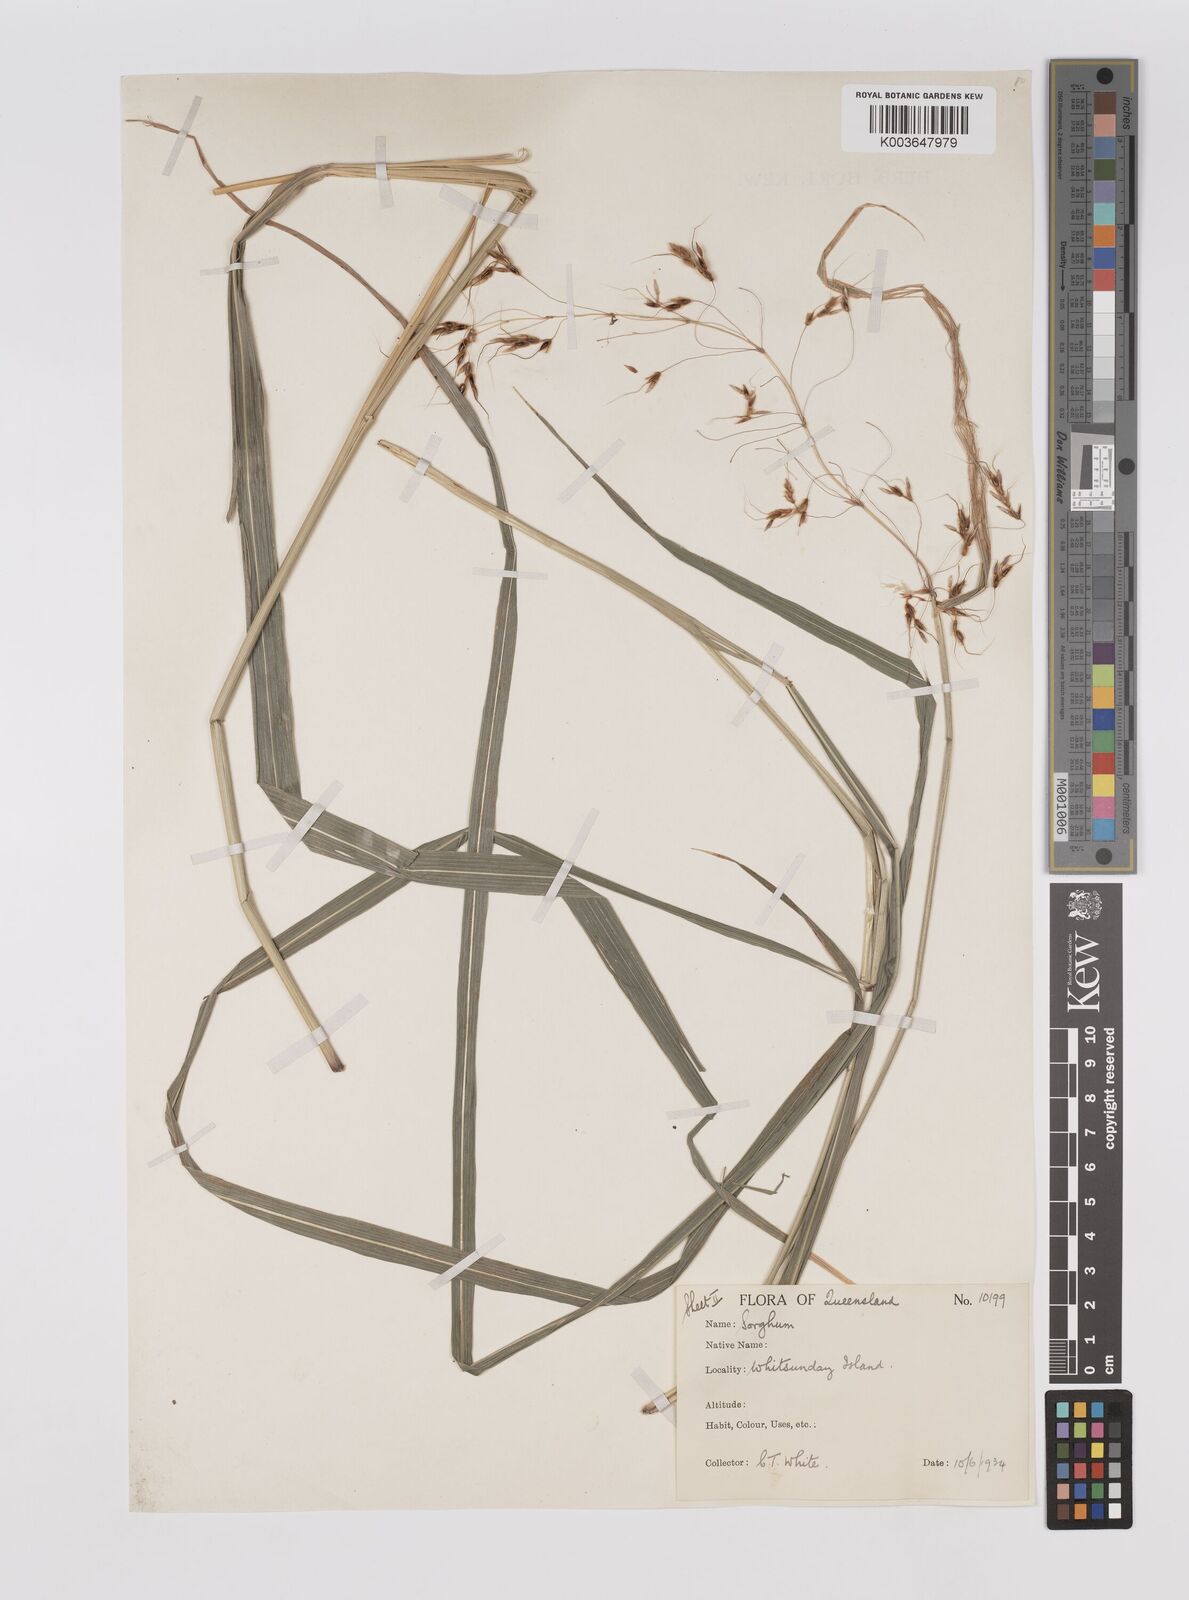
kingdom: Plantae
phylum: Tracheophyta
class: Liliopsida
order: Poales
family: Poaceae
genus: Sorghum
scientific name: Sorghum nitidum
